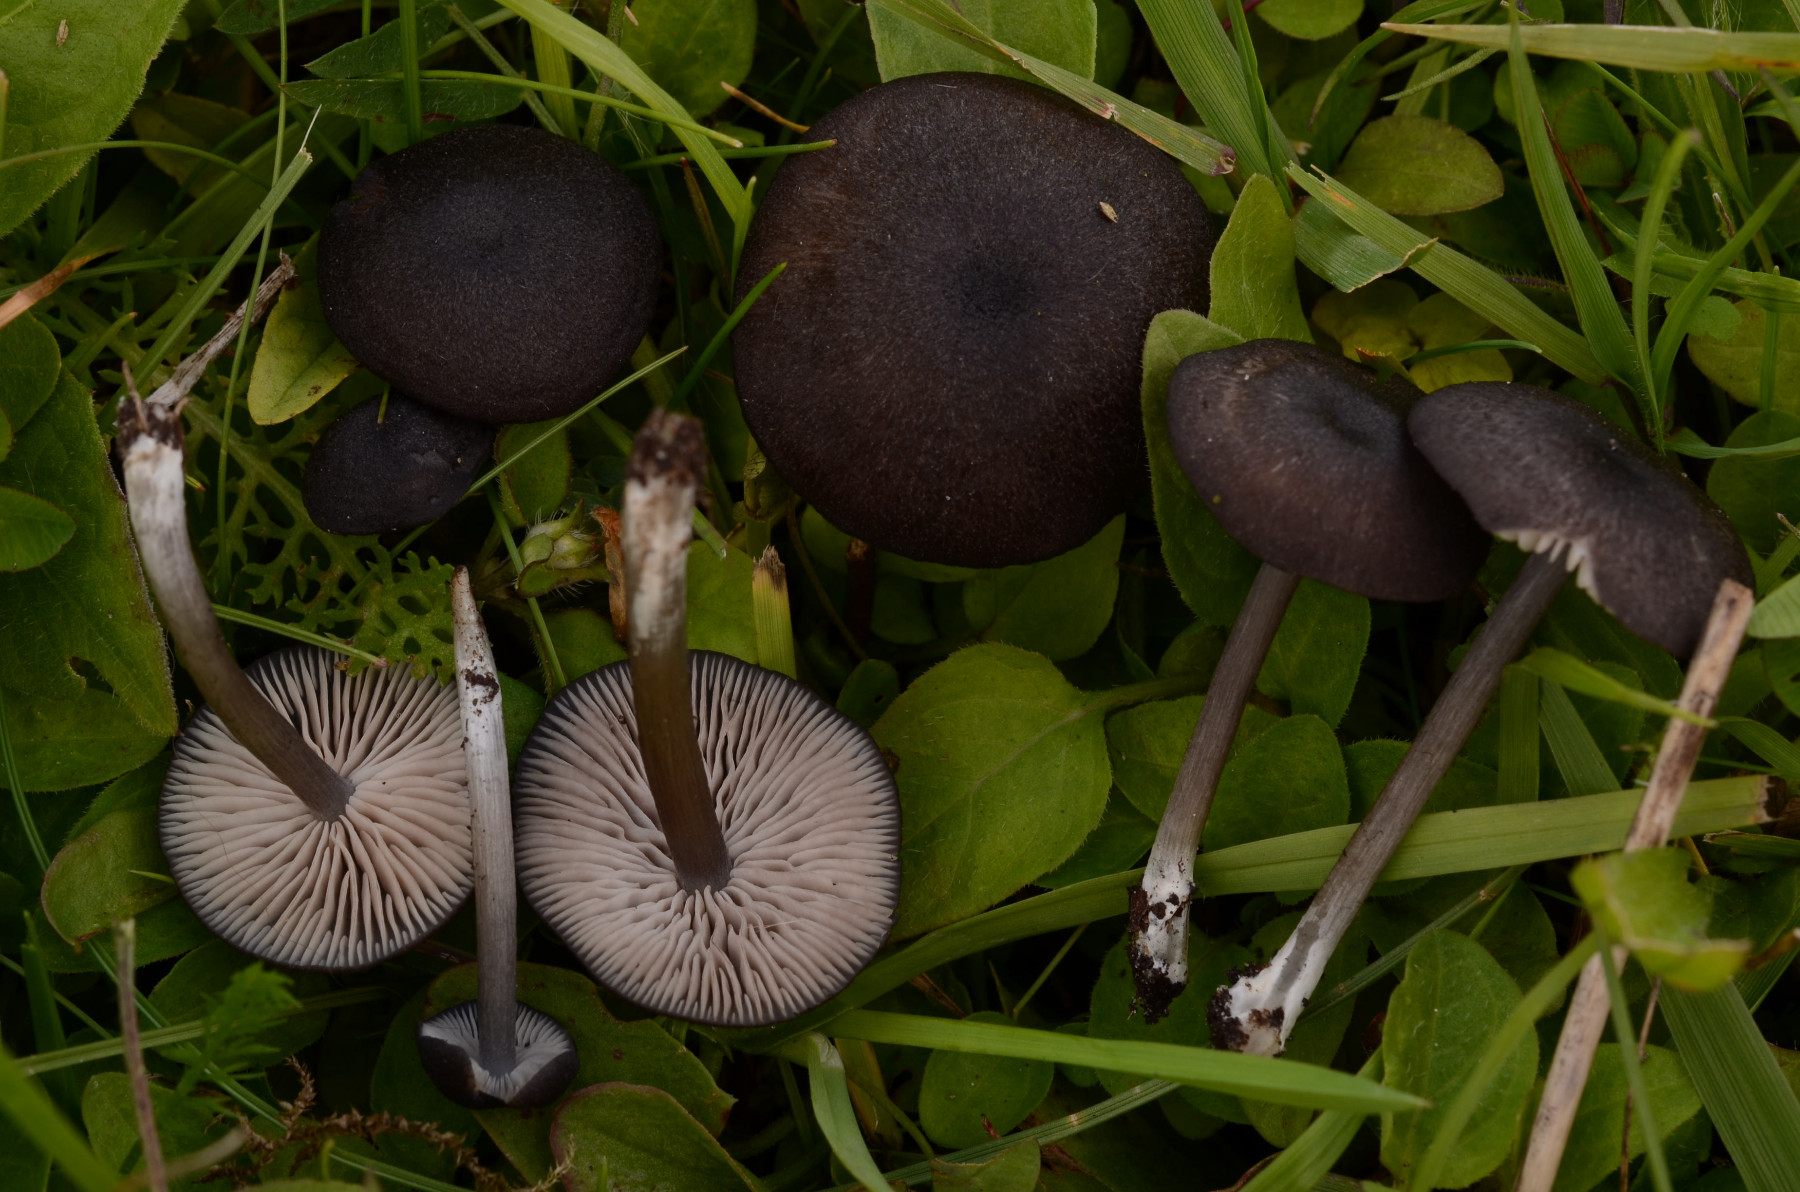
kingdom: Fungi
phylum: Basidiomycota
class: Agaricomycetes
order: Agaricales
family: Entolomataceae
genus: Entoloma
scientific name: Entoloma
